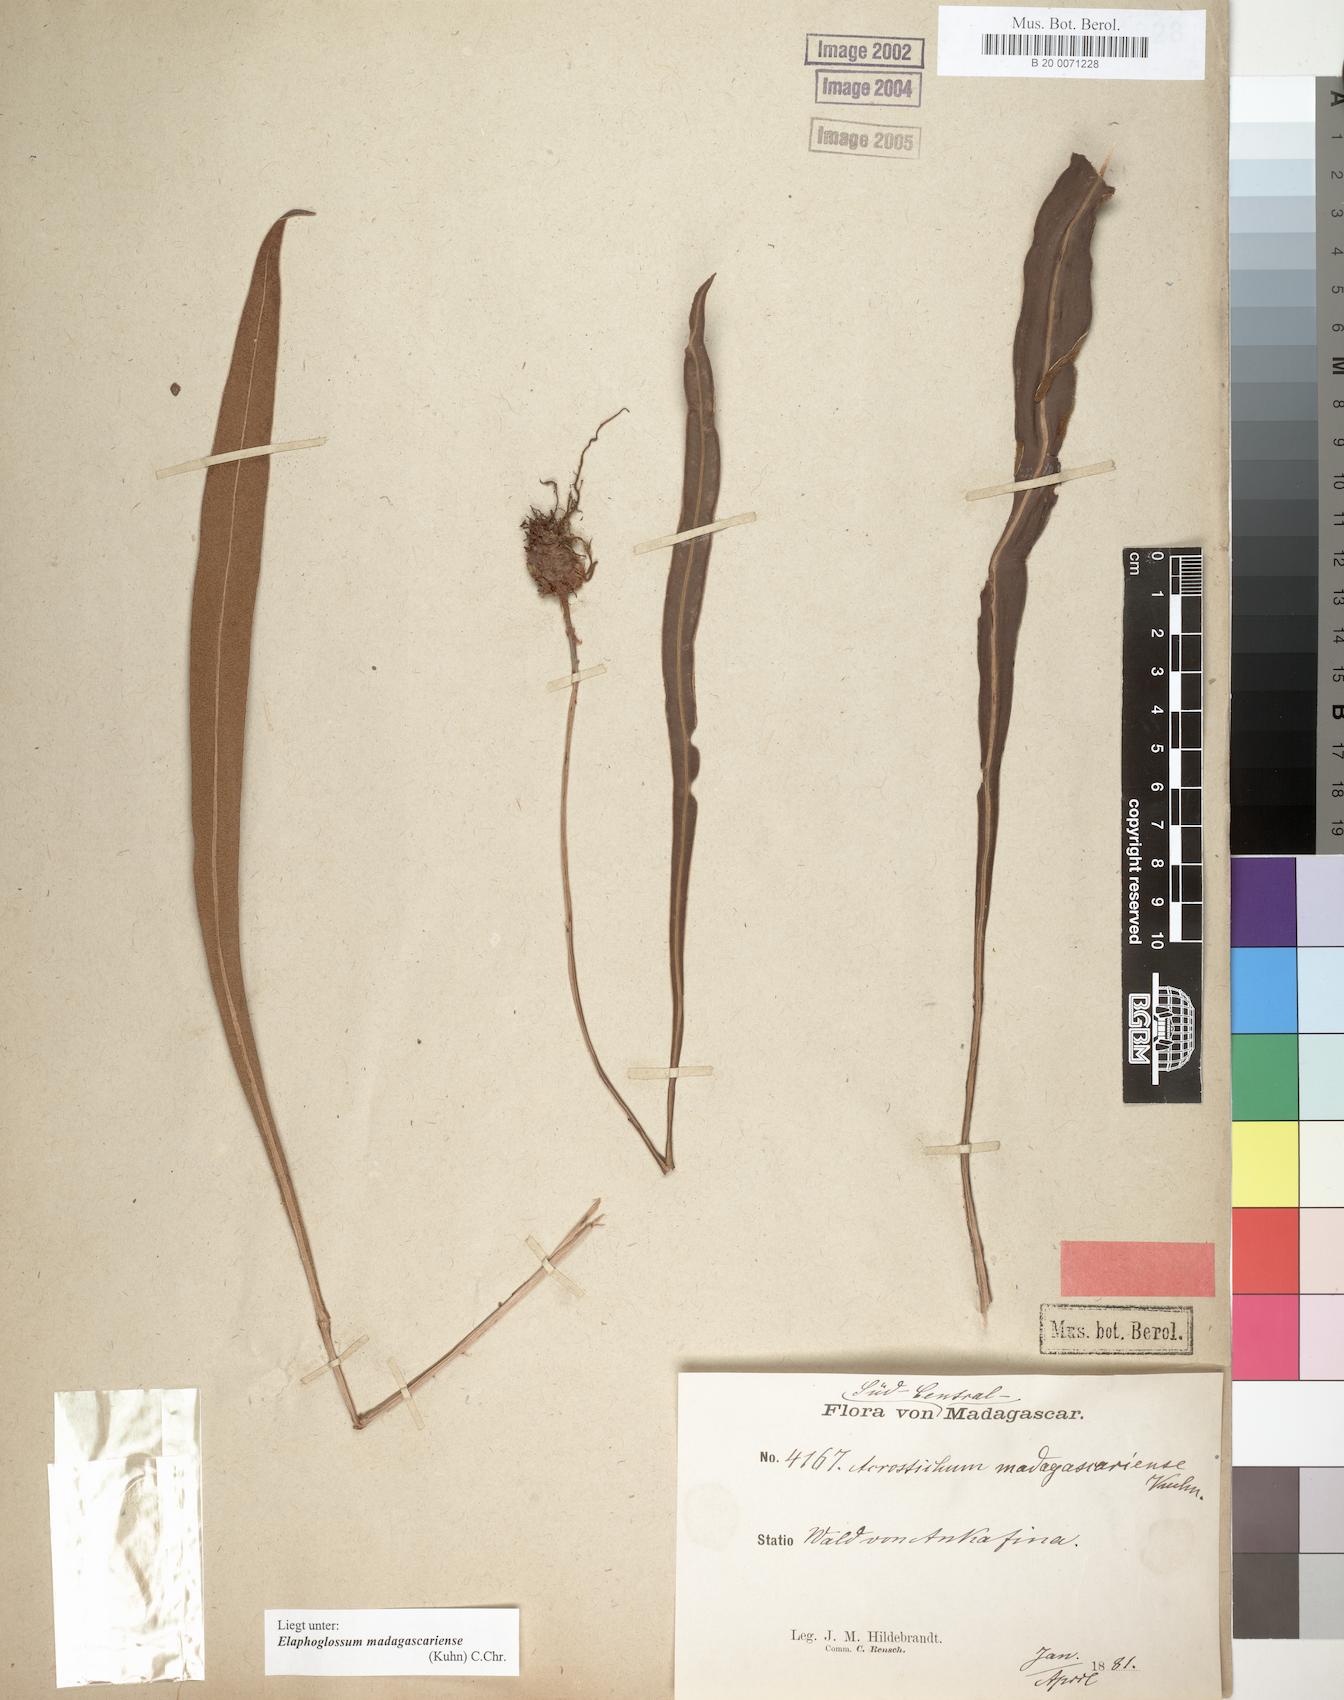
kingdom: Plantae
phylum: Tracheophyta
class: Polypodiopsida
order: Polypodiales
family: Dryopteridaceae
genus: Elaphoglossum
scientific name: Elaphoglossum subsessile
